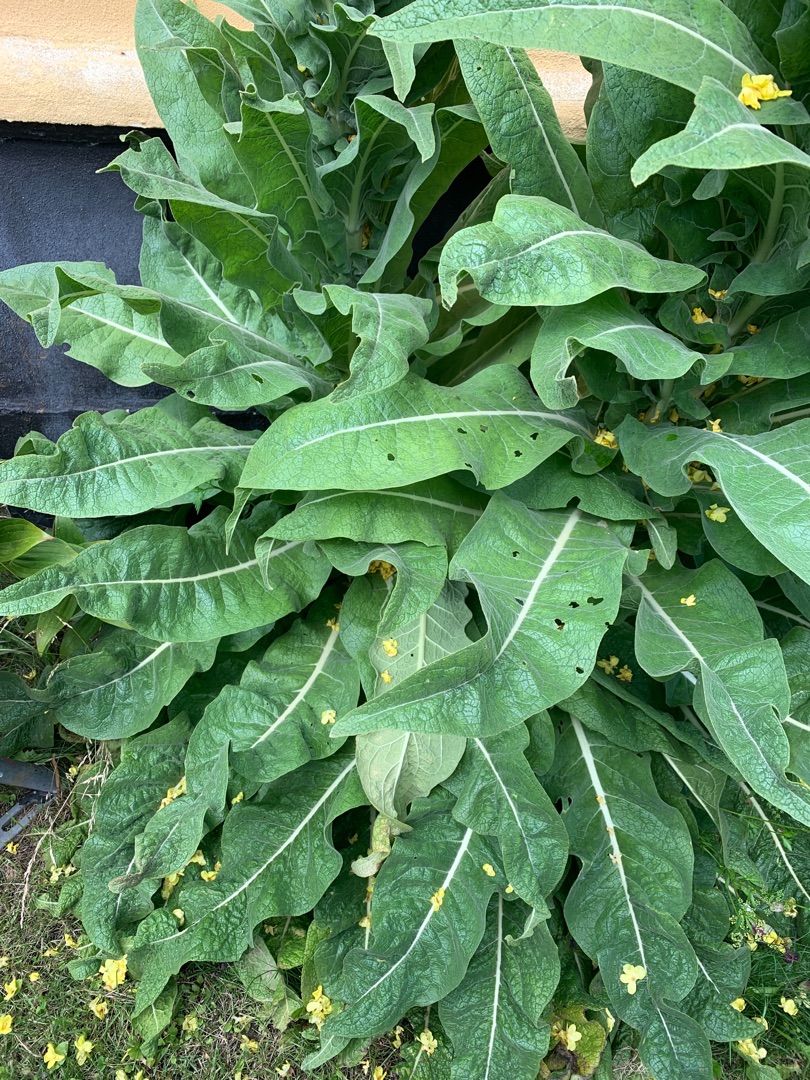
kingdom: Plantae
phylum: Tracheophyta
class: Magnoliopsida
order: Lamiales
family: Scrophulariaceae
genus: Verbascum
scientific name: Verbascum speciosum
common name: Kandelaber-kongelys
